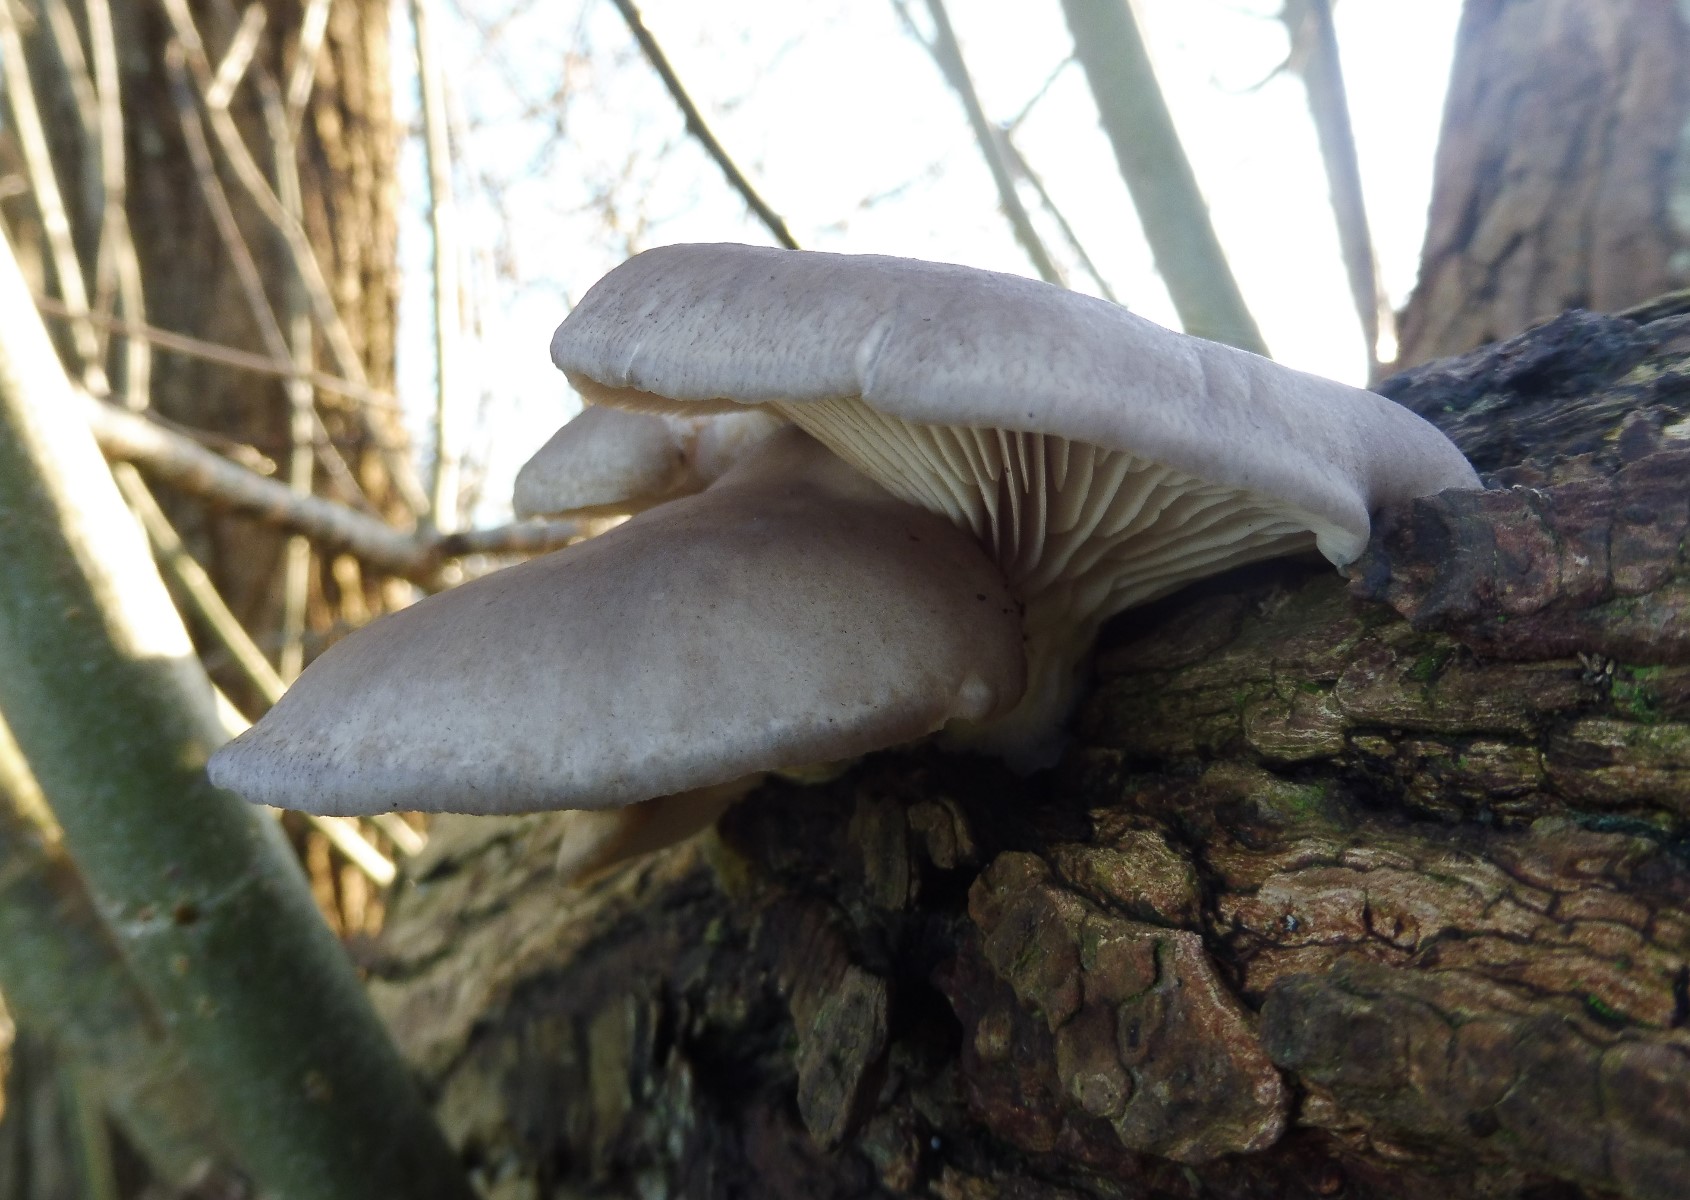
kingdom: Fungi
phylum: Basidiomycota
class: Agaricomycetes
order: Agaricales
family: Pleurotaceae
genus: Pleurotus
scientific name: Pleurotus ostreatus
